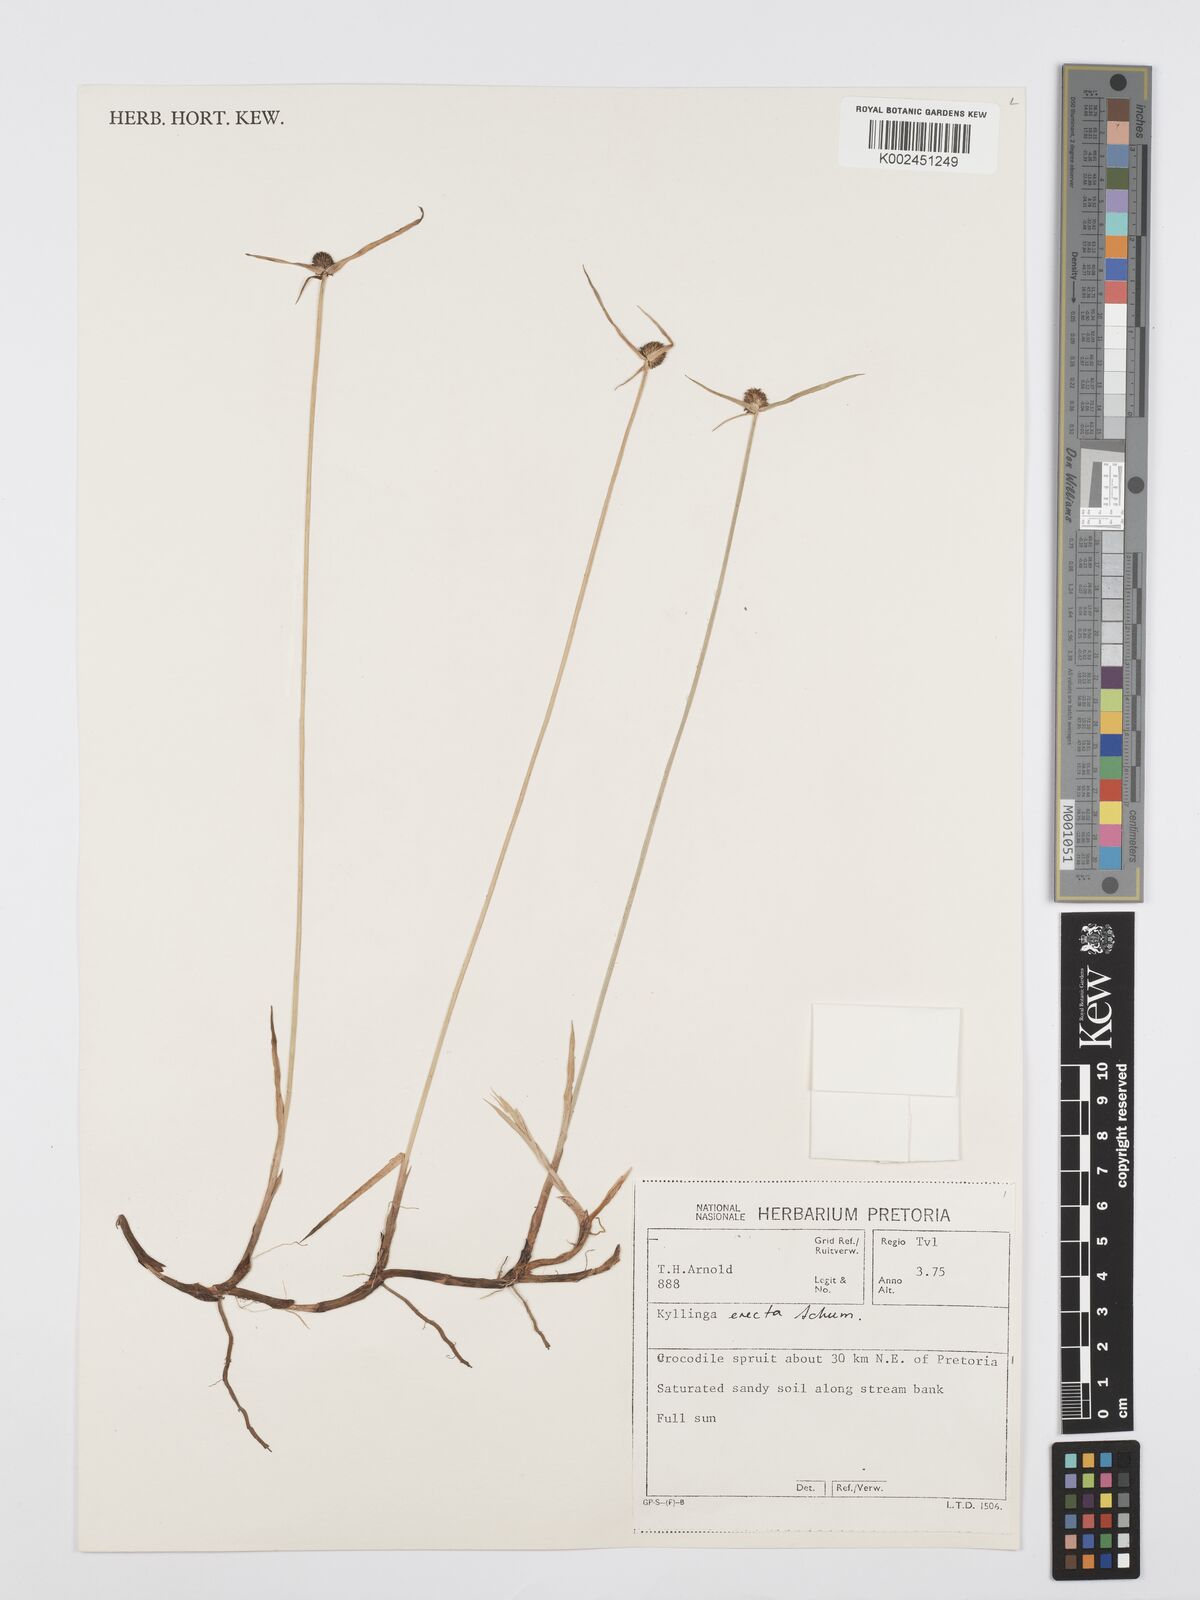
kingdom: Plantae
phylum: Tracheophyta
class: Liliopsida
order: Poales
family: Cyperaceae
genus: Cyperus
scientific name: Cyperus erectus
